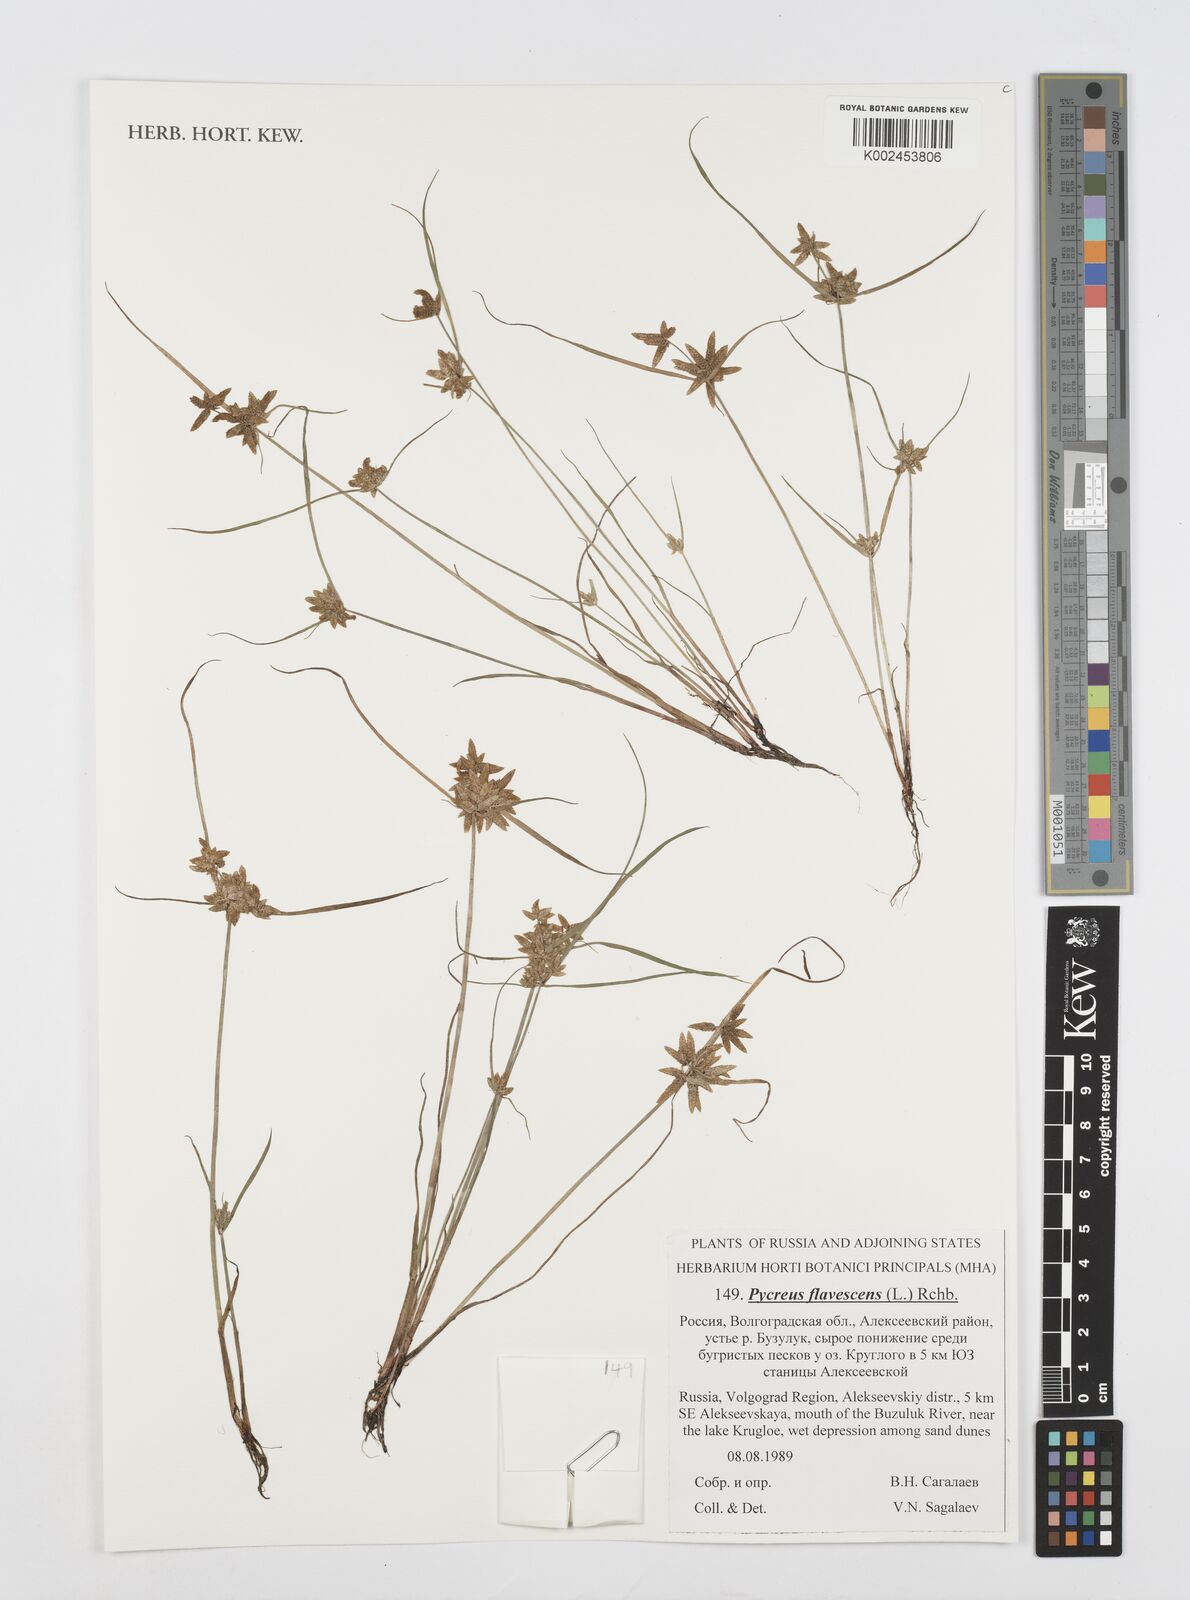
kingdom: Plantae
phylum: Tracheophyta
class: Liliopsida
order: Poales
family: Cyperaceae
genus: Cyperus
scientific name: Cyperus flavescens
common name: Yellow galingale
